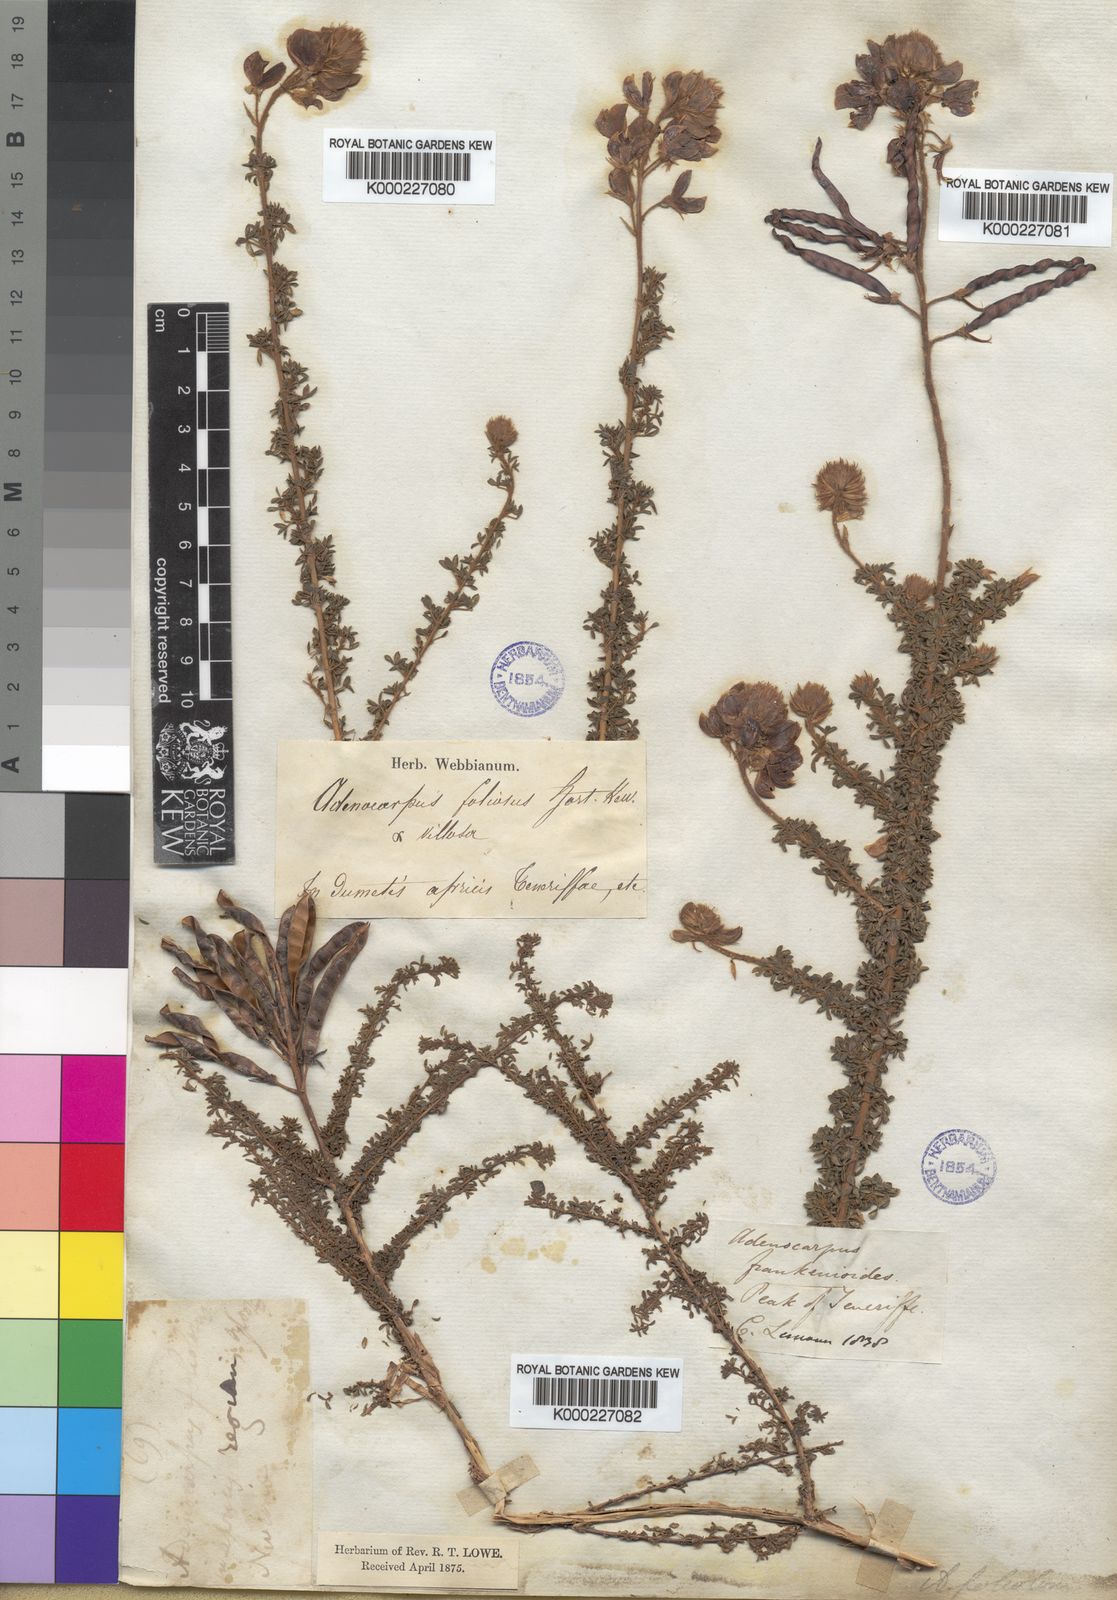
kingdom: Plantae
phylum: Tracheophyta
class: Magnoliopsida
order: Fabales
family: Fabaceae
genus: Adenocarpus
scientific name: Adenocarpus foliolosus
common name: Canary island flatpod
